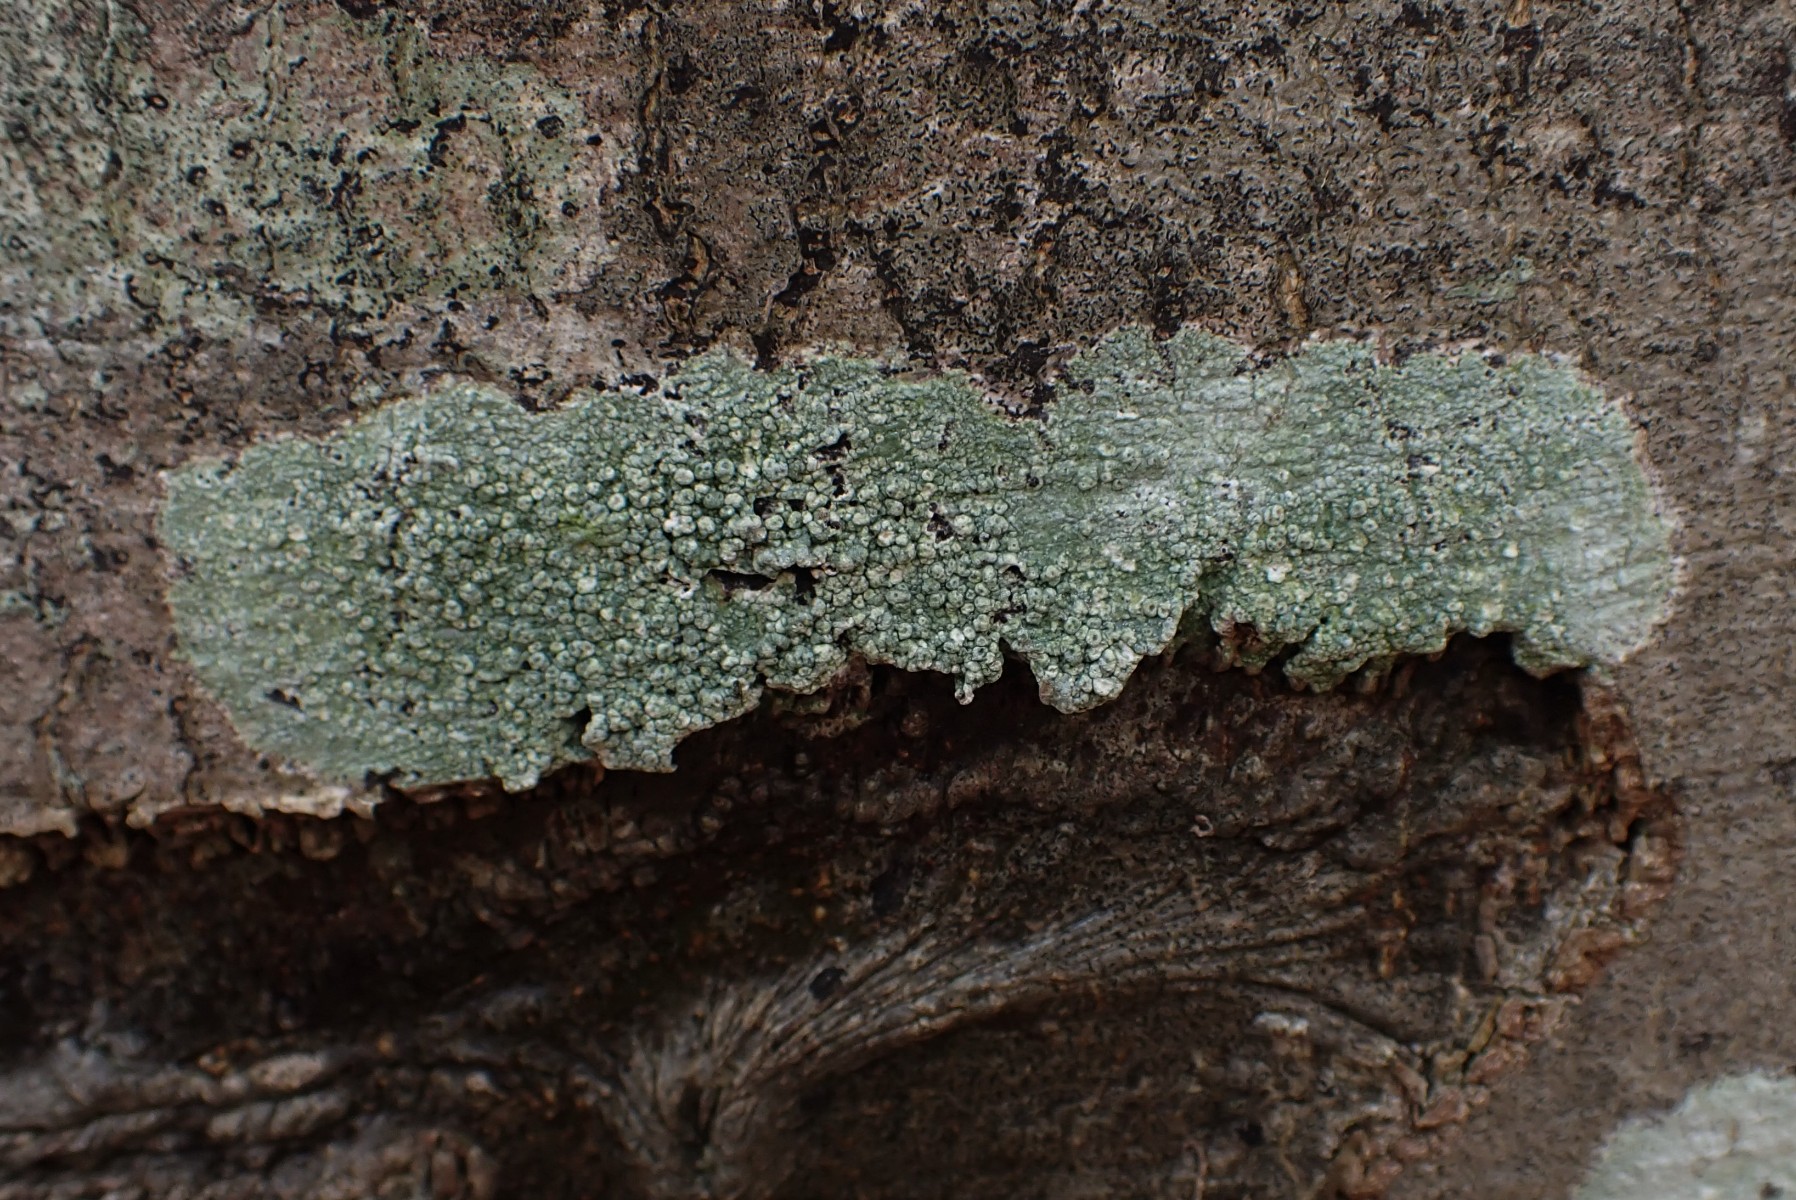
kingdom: Fungi
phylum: Ascomycota
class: Lecanoromycetes
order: Pertusariales
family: Pertusariaceae
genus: Pertusaria
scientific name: Pertusaria pertusa
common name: almindelig prikvortelav
